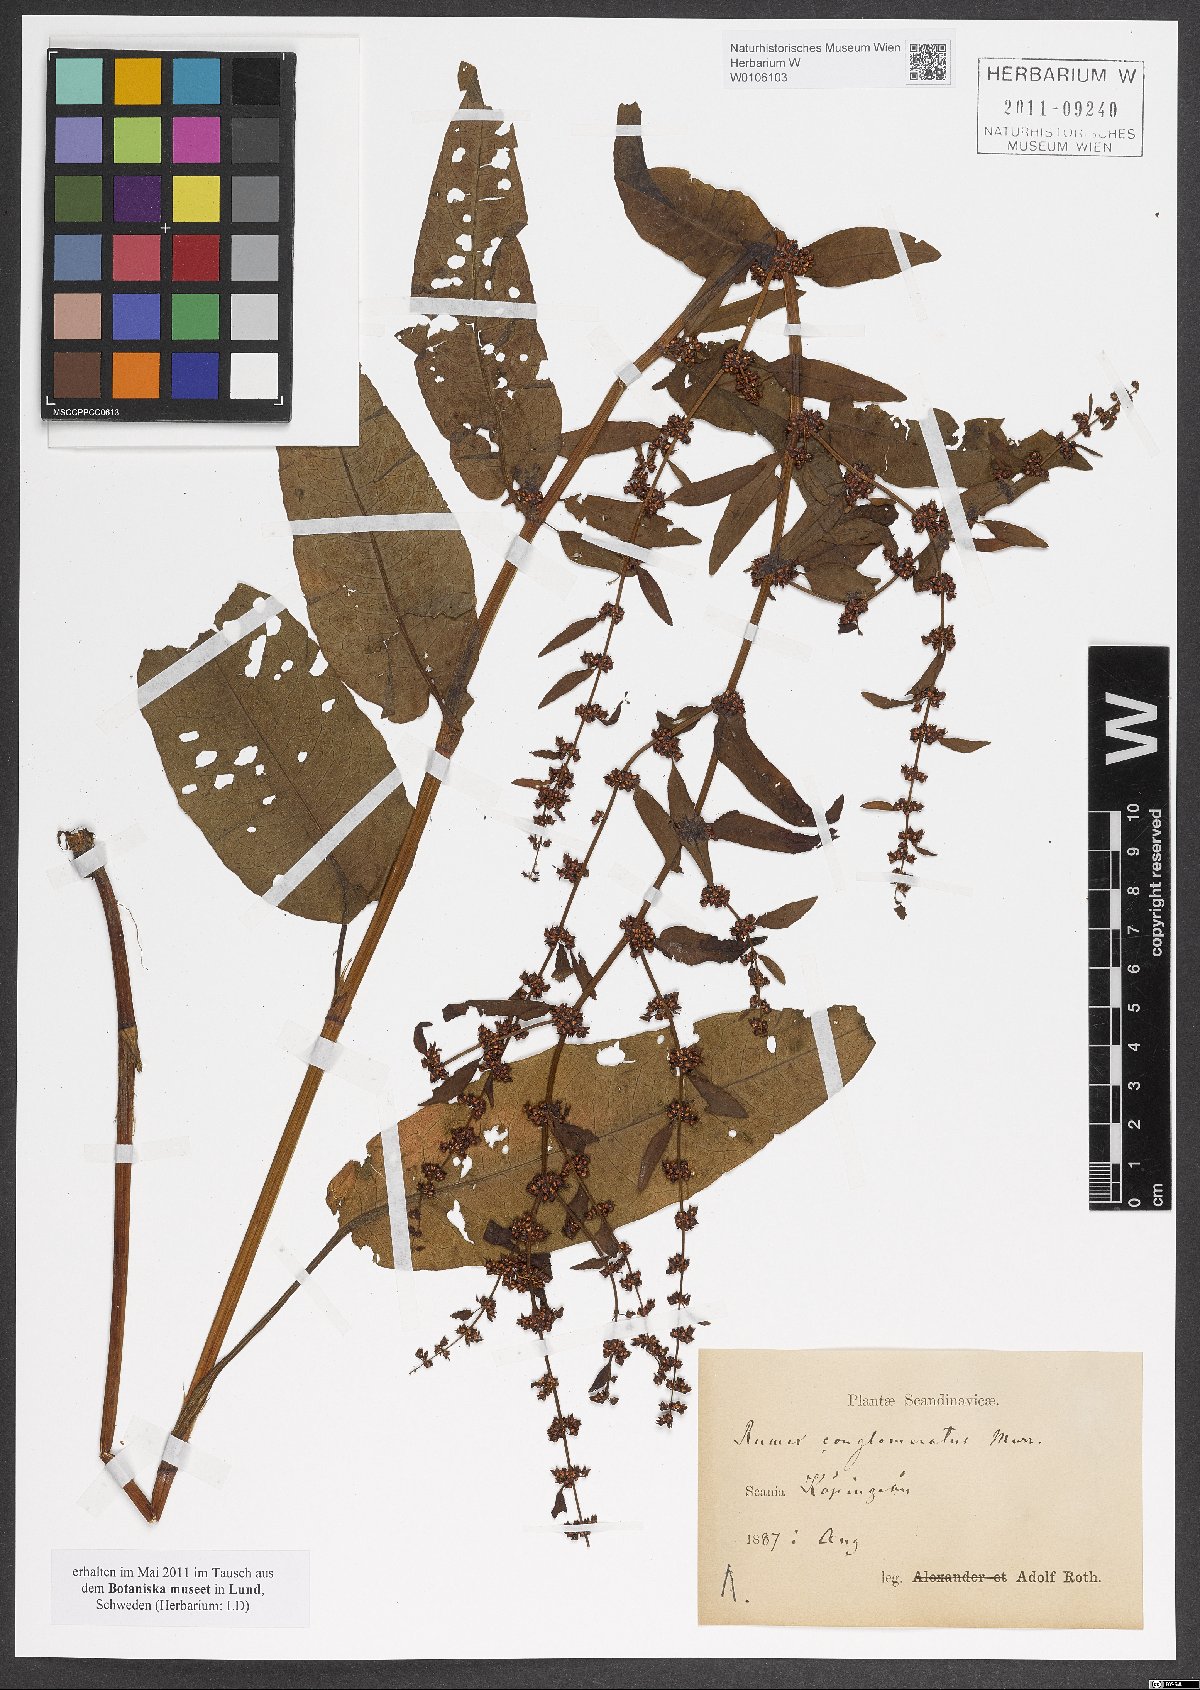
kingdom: Plantae
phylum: Tracheophyta
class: Magnoliopsida
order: Caryophyllales
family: Polygonaceae
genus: Rumex
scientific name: Rumex conglomeratus
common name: Clustered dock
